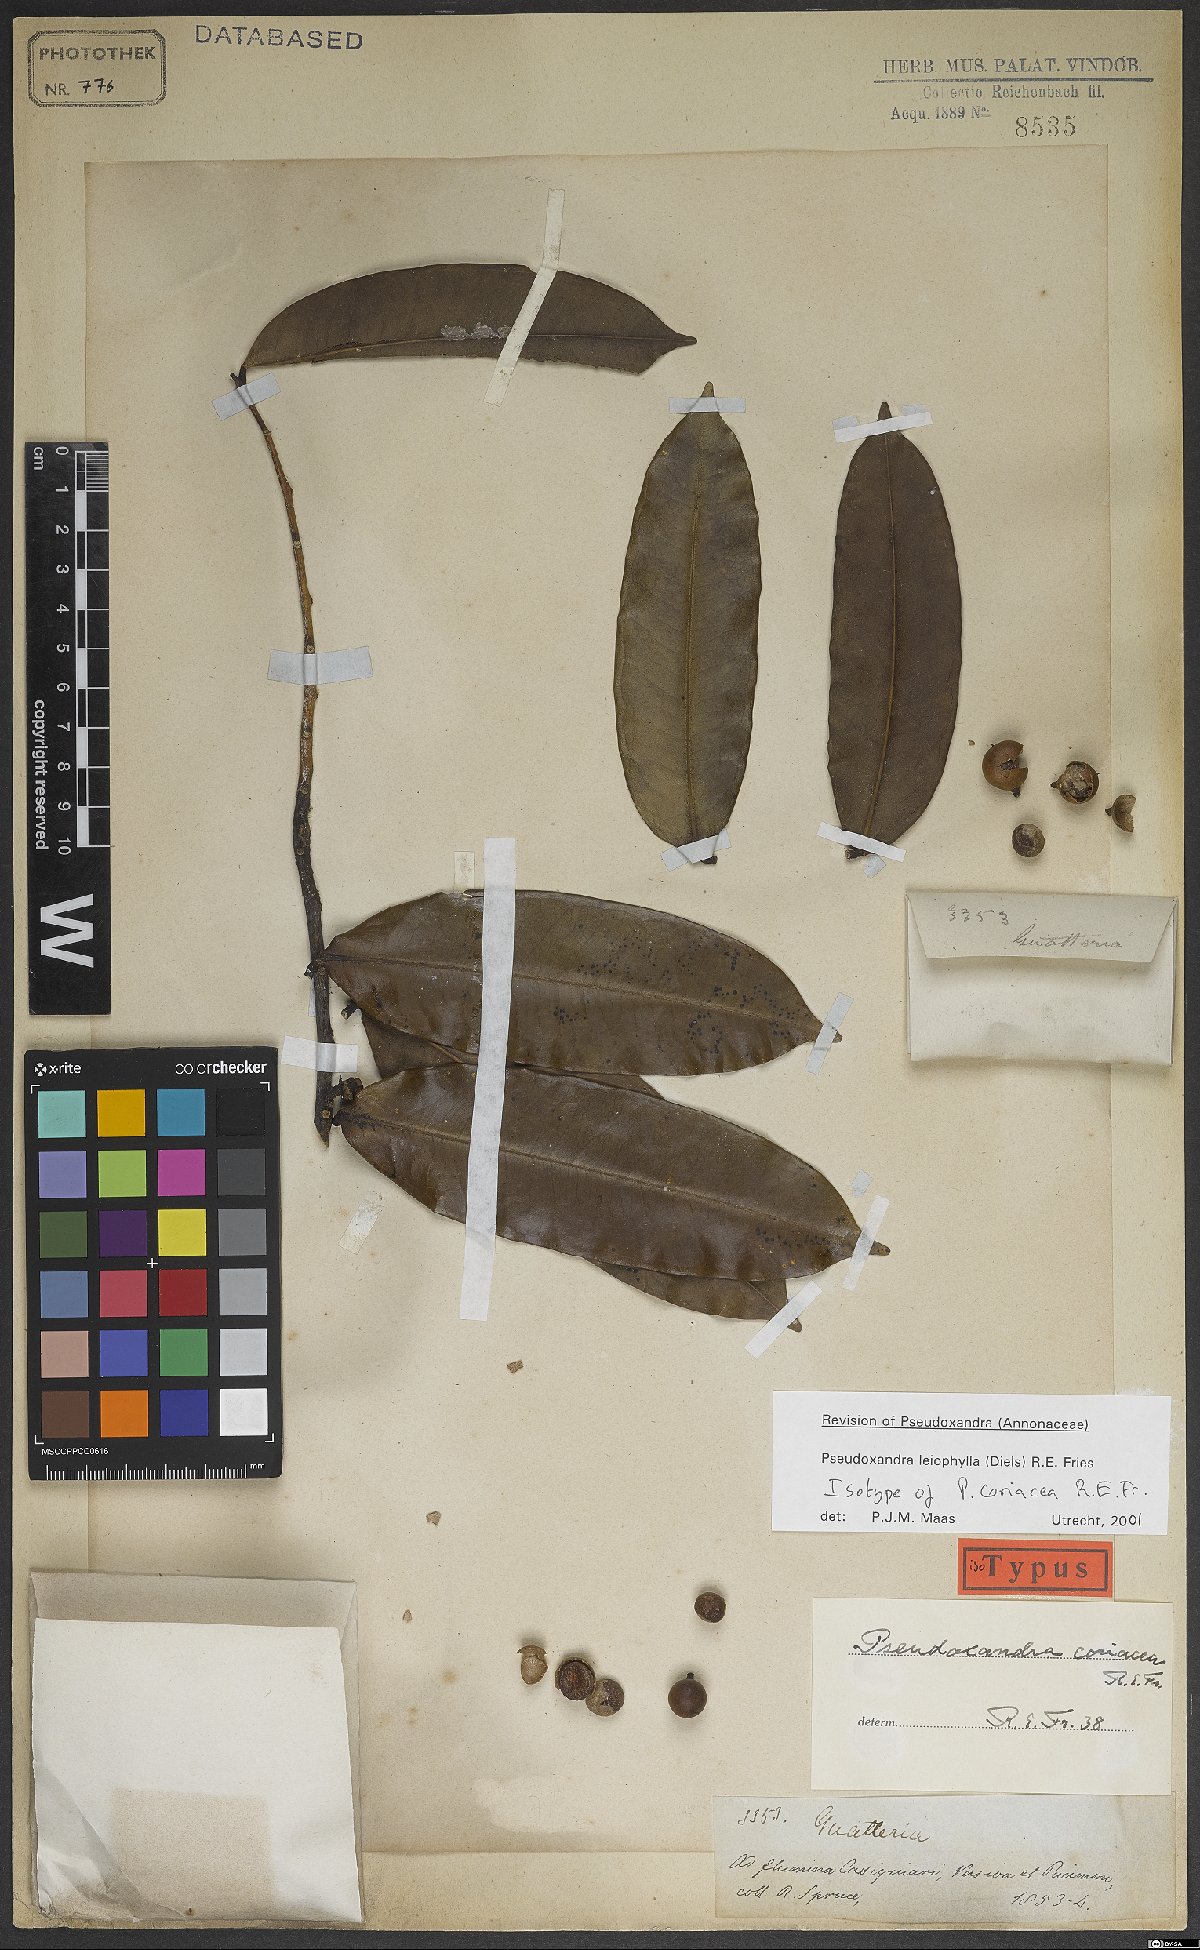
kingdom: Plantae
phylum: Tracheophyta
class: Magnoliopsida
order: Magnoliales
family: Annonaceae
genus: Pseudoxandra
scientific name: Pseudoxandra leiophylla
